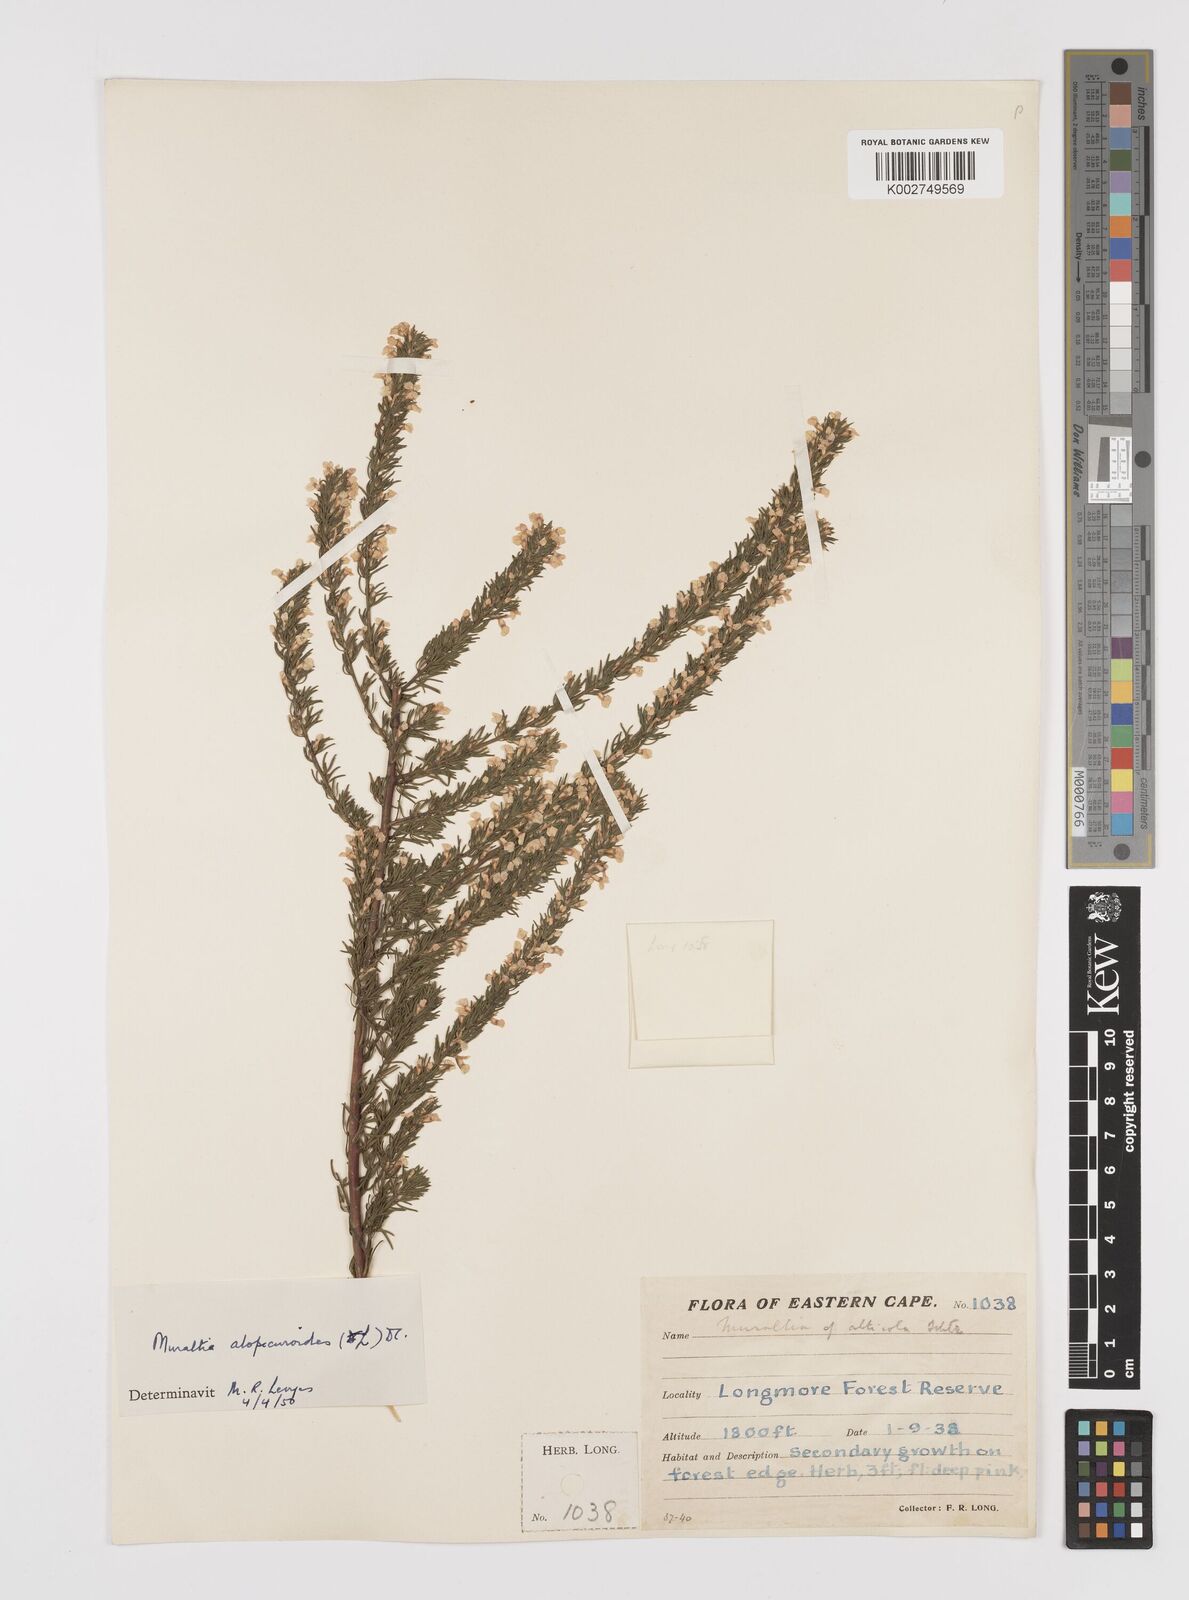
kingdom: Plantae
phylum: Tracheophyta
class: Magnoliopsida
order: Fabales
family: Polygalaceae
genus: Muraltia
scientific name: Muraltia alopecuroides
